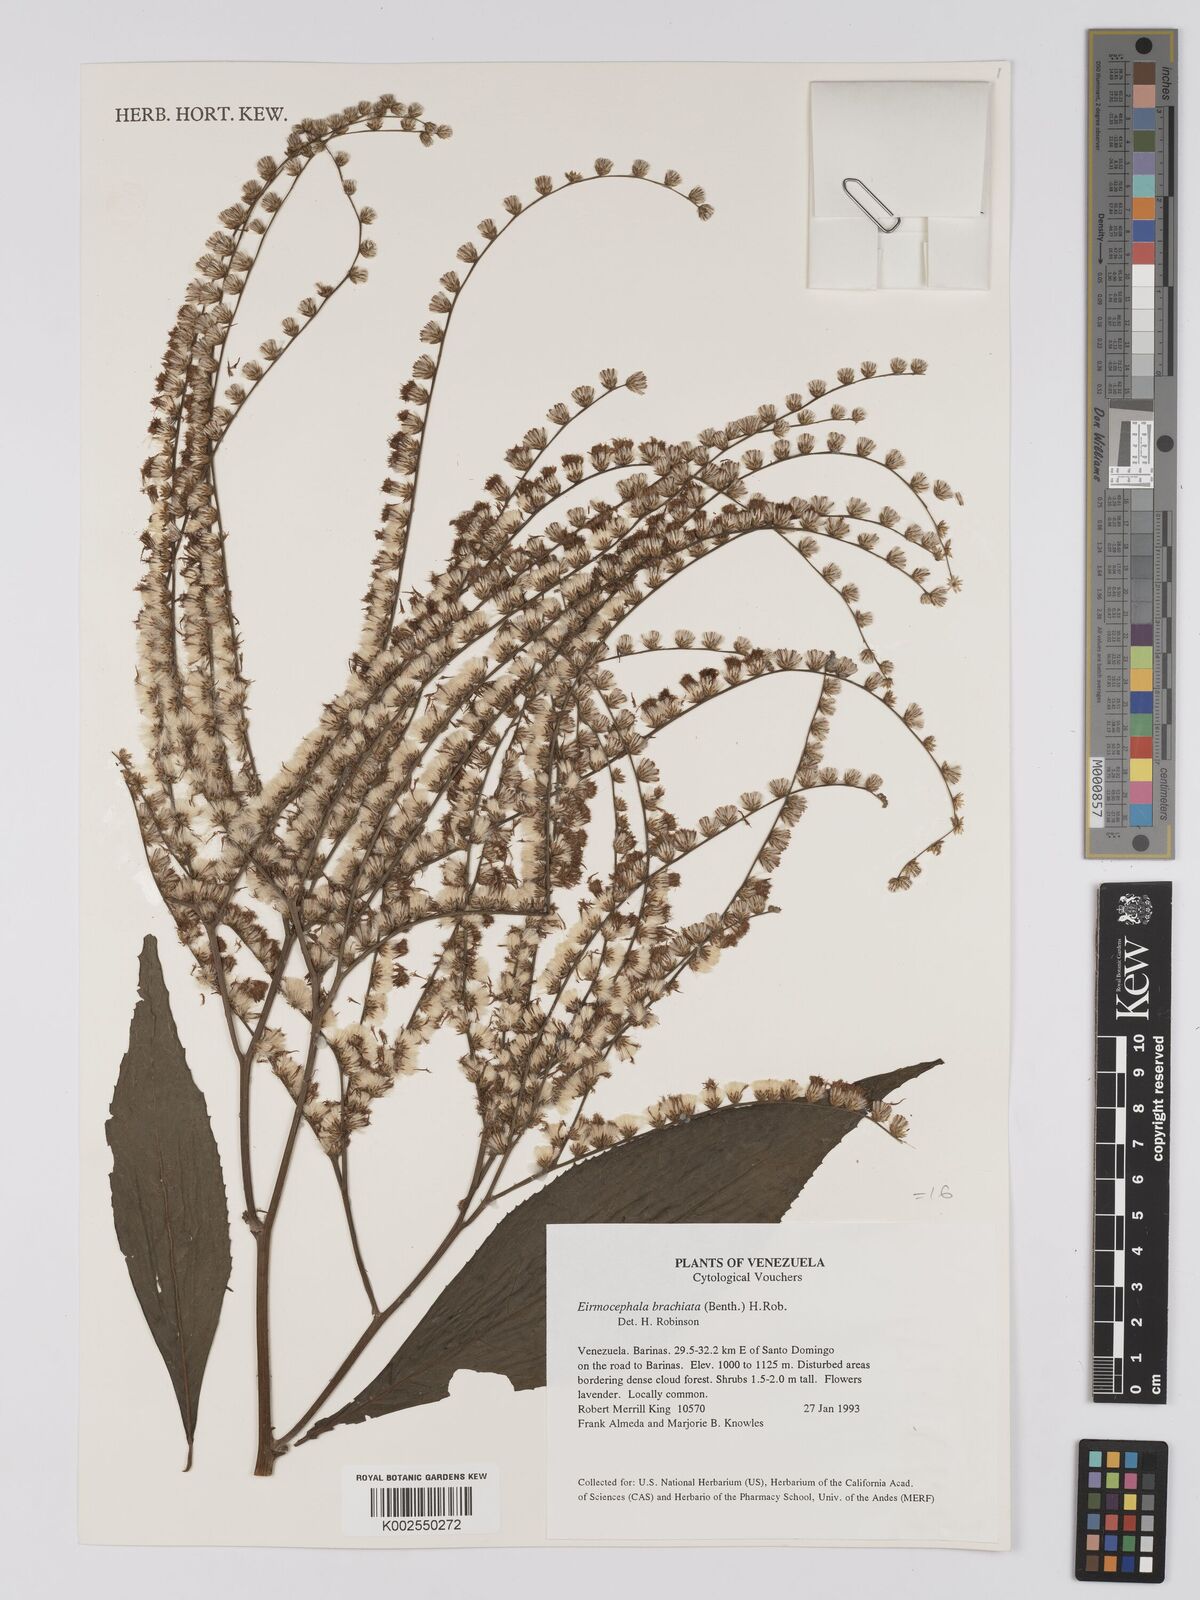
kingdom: Plantae
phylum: Tracheophyta
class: Magnoliopsida
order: Asterales
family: Asteraceae
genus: Eirmocephala
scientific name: Eirmocephala brachiata
